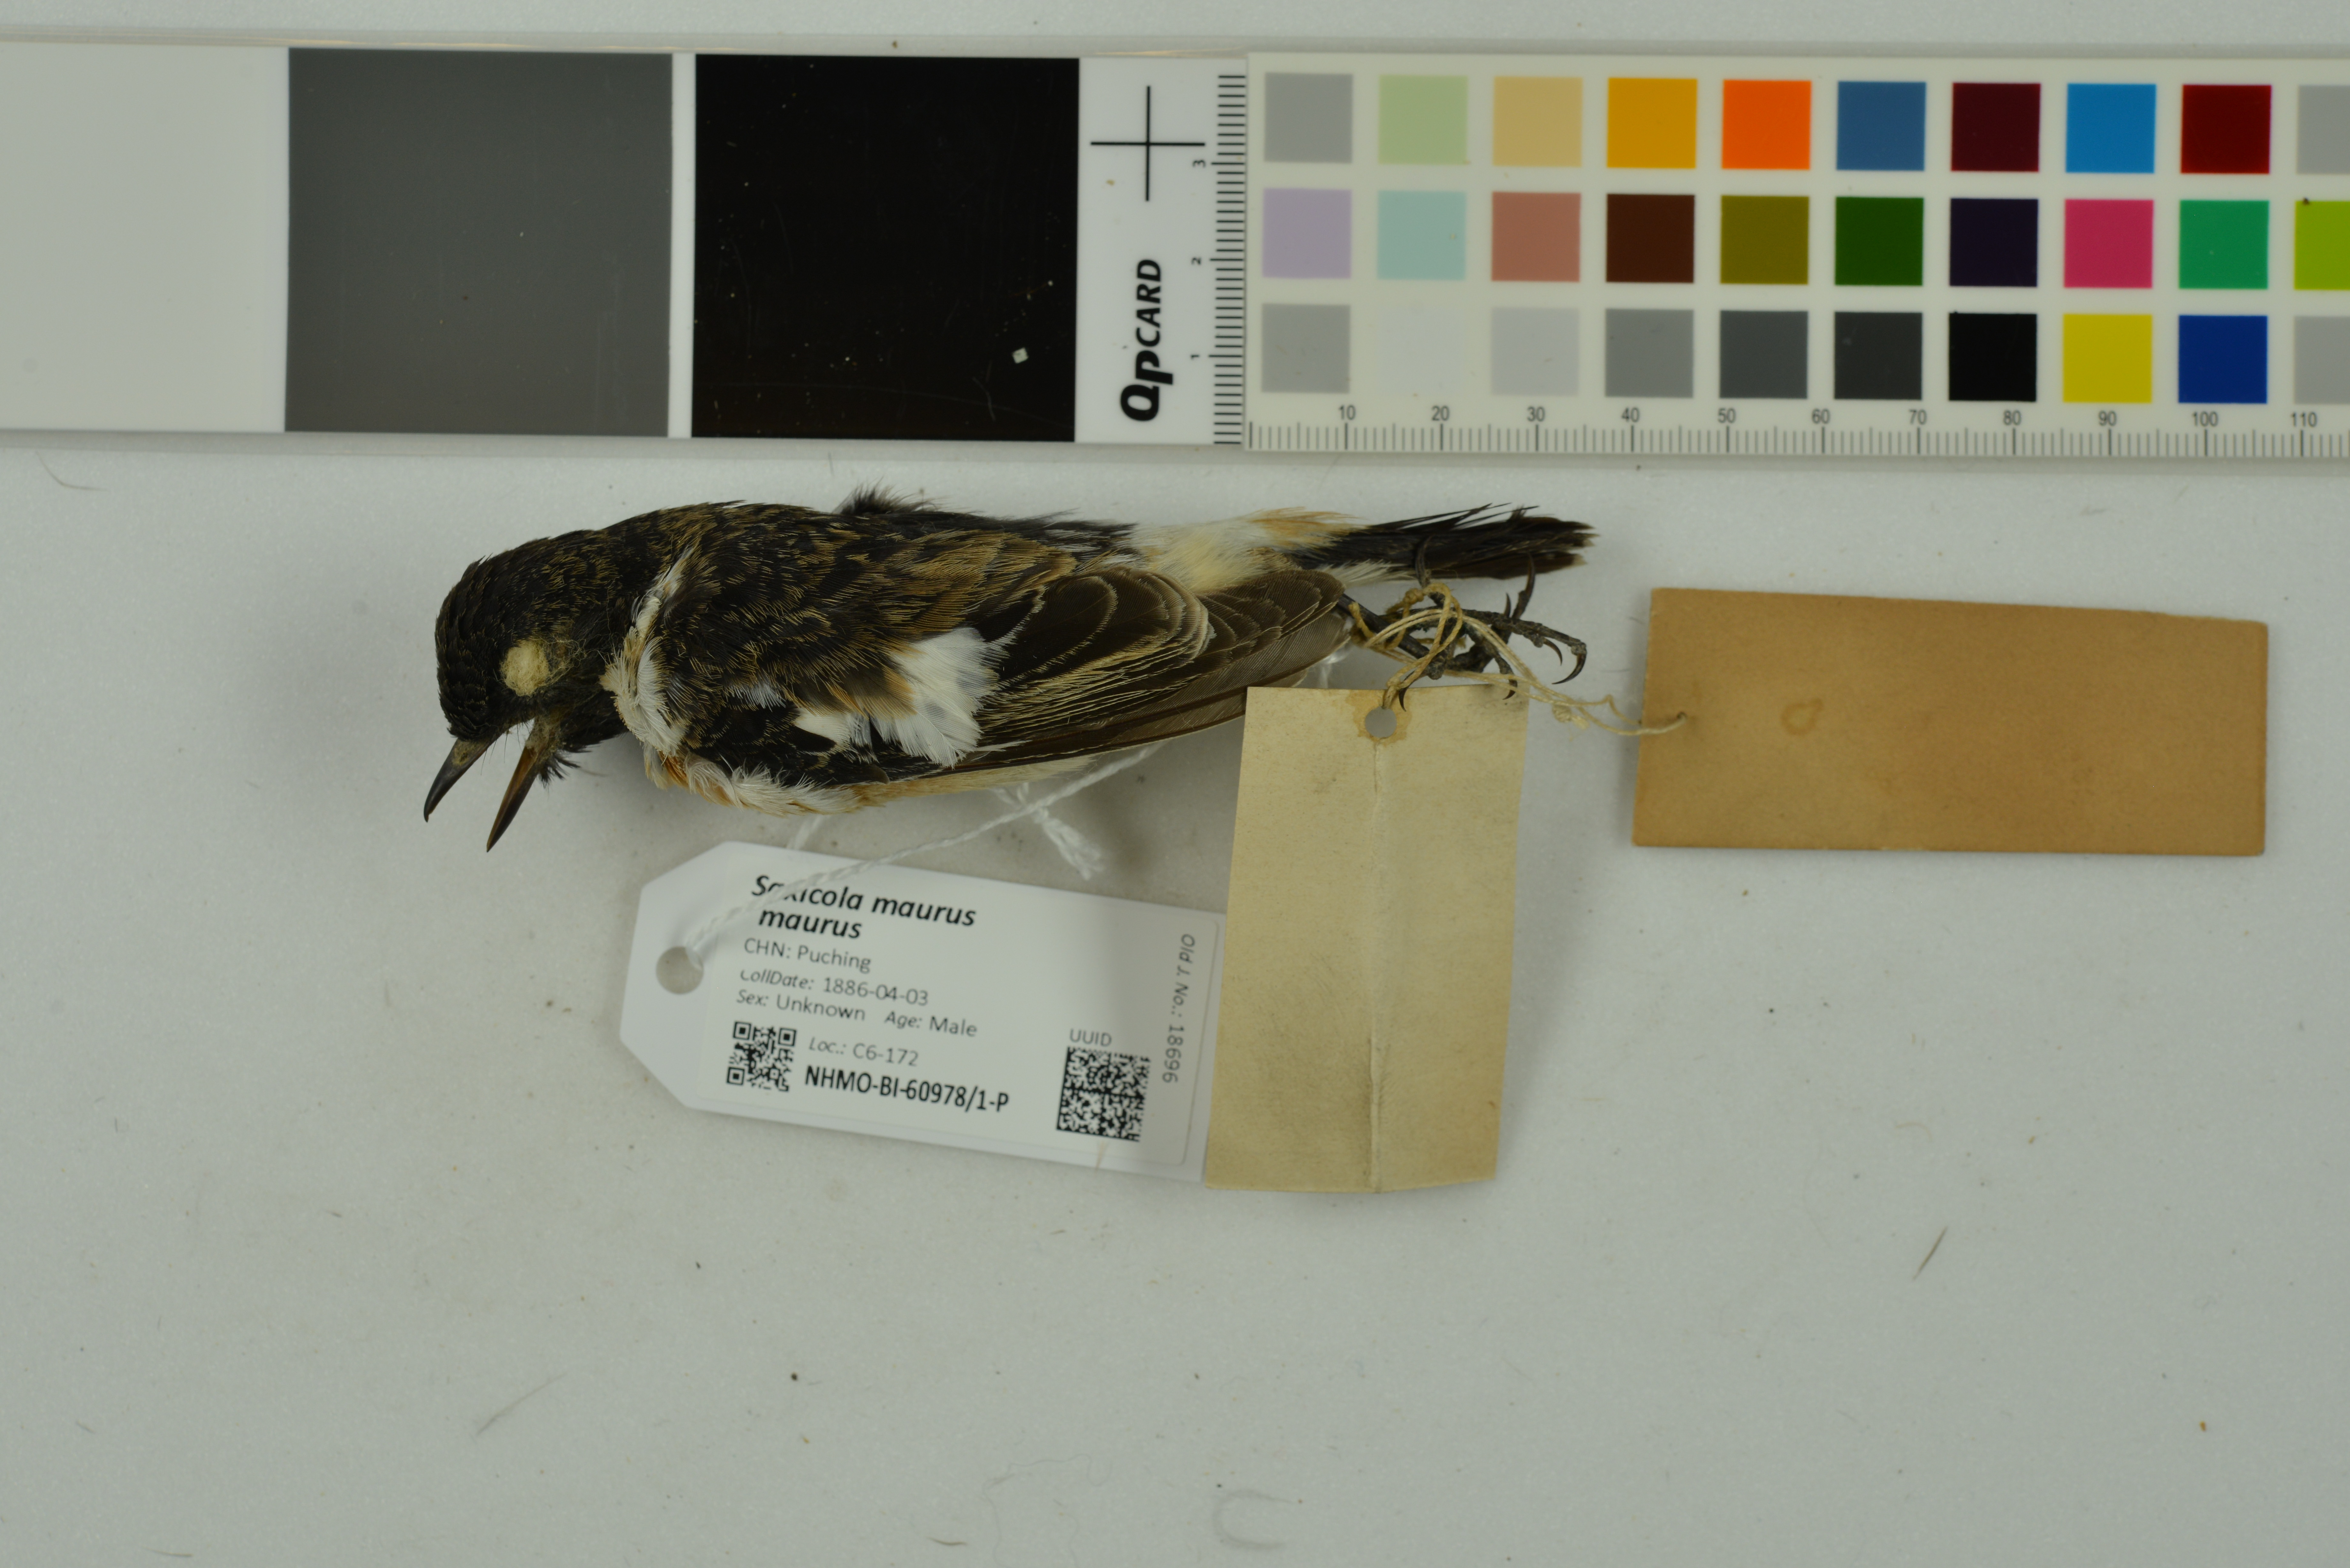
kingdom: Animalia
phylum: Chordata
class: Aves
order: Passeriformes
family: Muscicapidae
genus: Saxicola
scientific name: Saxicola maurus
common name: Siberian stonechat
